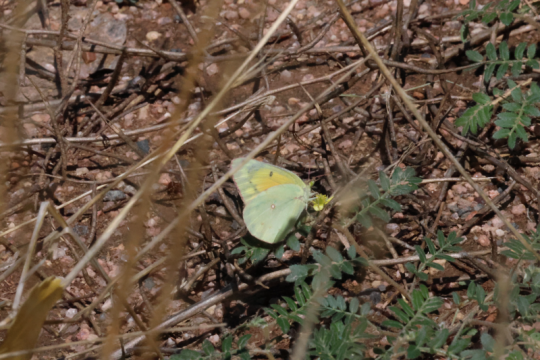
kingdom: Animalia
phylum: Arthropoda
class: Insecta
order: Lepidoptera
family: Pieridae
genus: Colias
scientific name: Colias eurytheme
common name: Orange Sulphur
